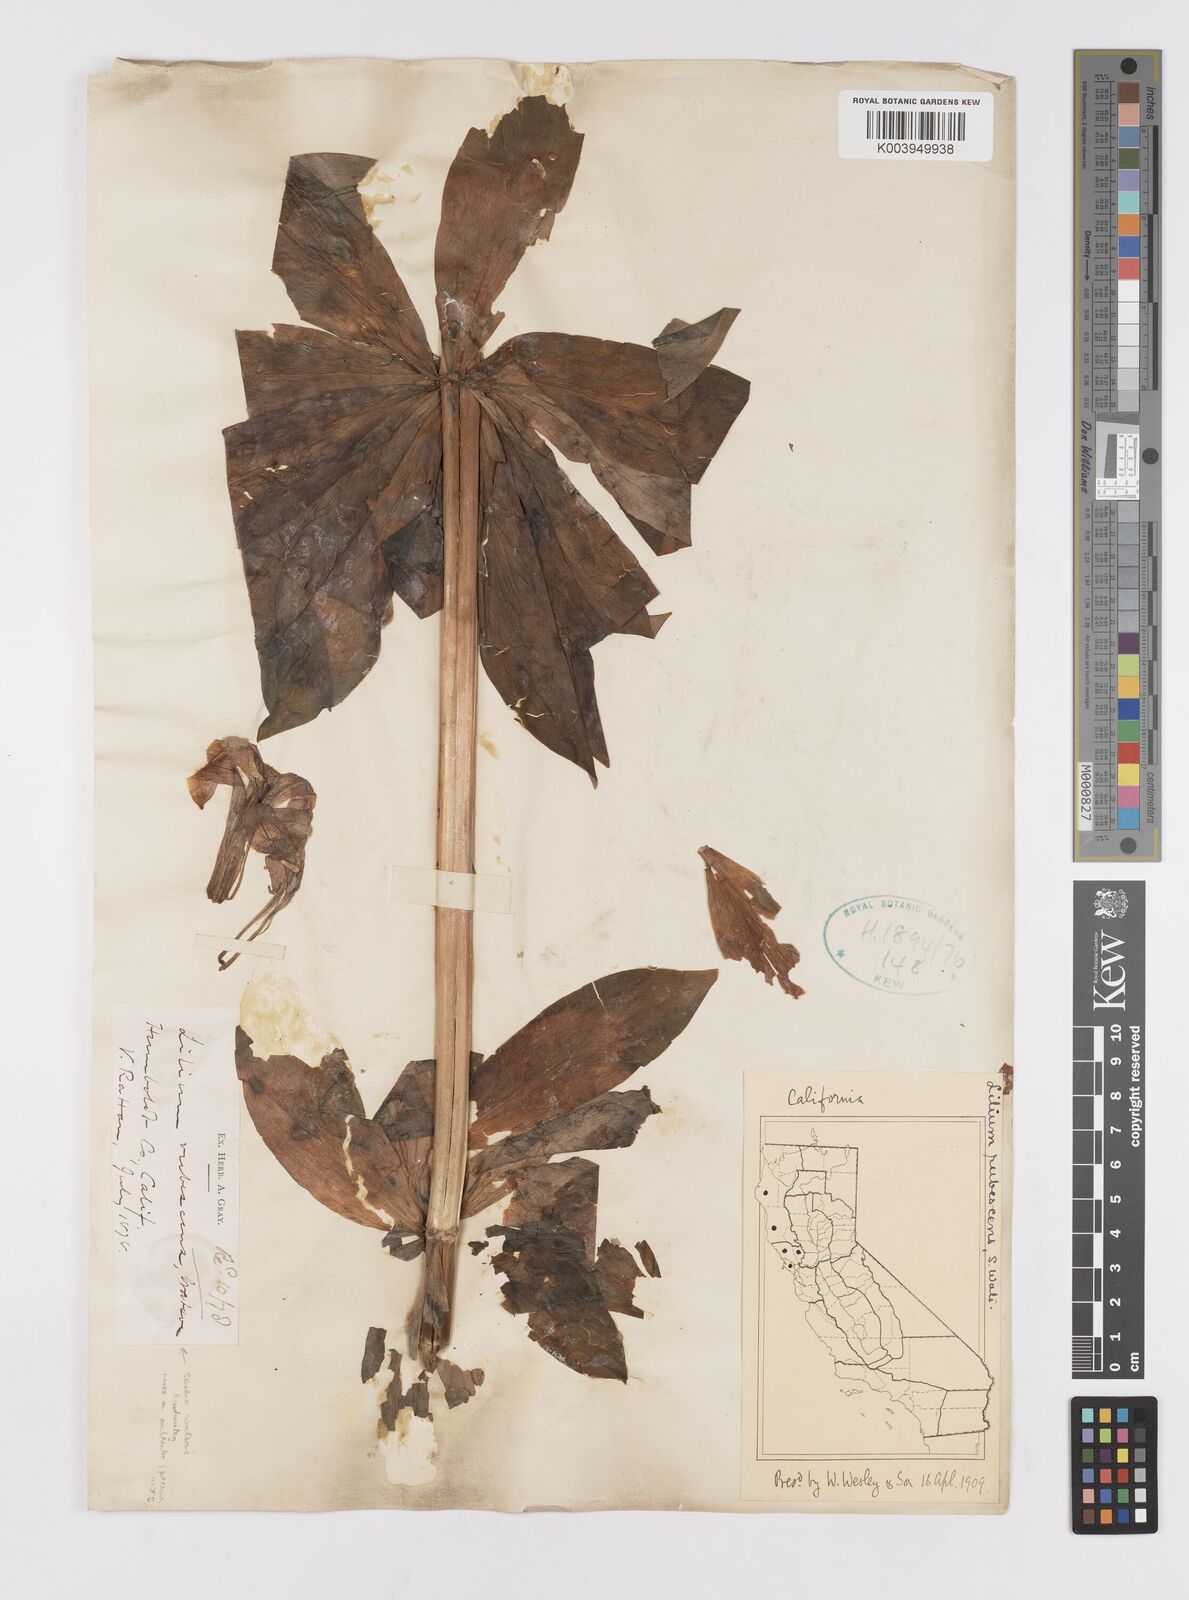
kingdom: Plantae
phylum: Tracheophyta
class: Liliopsida
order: Liliales
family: Liliaceae
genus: Lilium
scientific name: Lilium washingtonianum
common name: Washington lily
